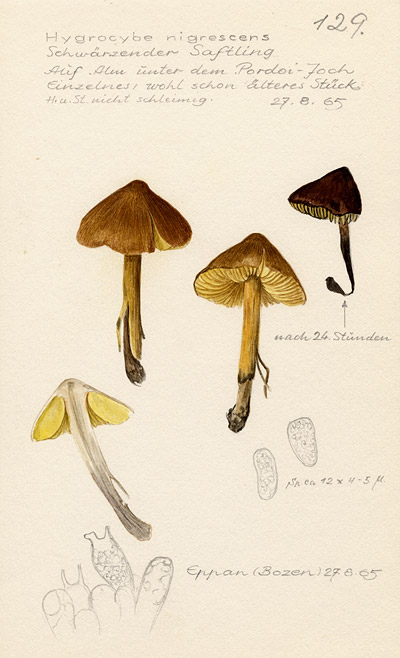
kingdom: Fungi
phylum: Basidiomycota
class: Agaricomycetes
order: Agaricales
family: Hygrophoraceae
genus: Hygrocybe
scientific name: Hygrocybe conica
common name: Blackening wax-cap
